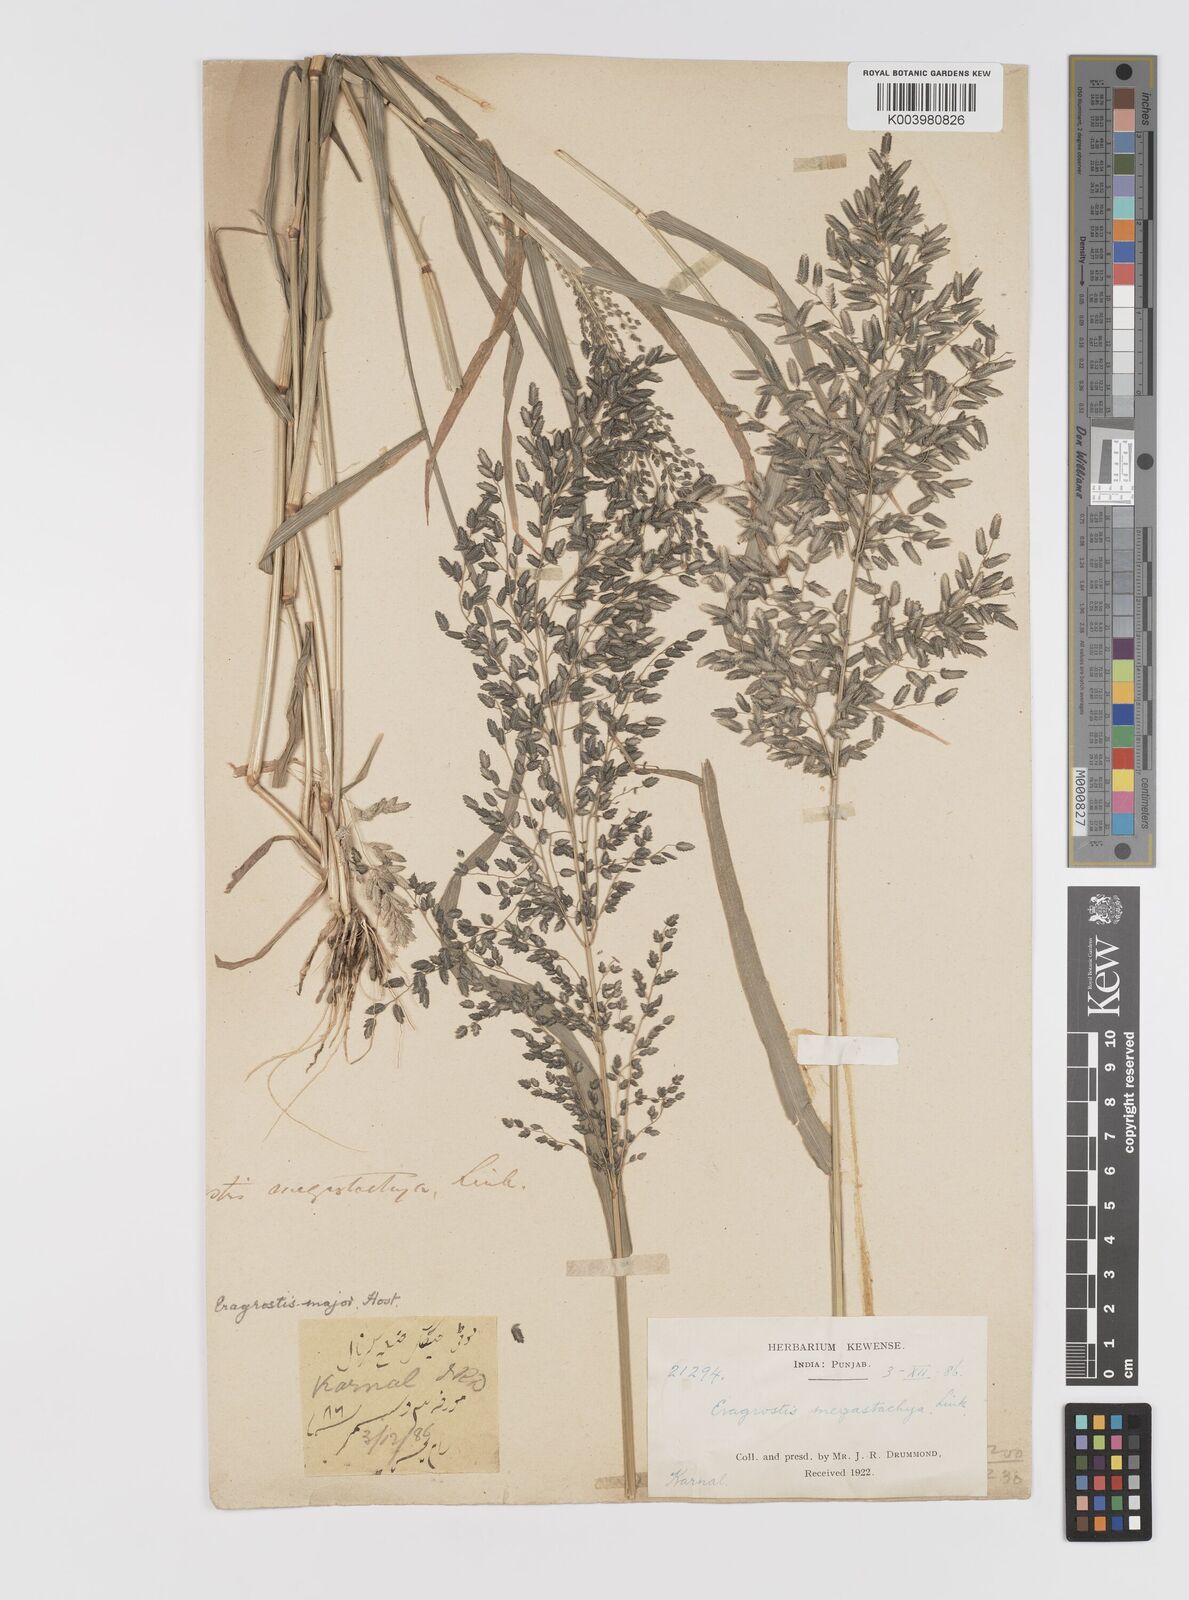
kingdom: Plantae
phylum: Tracheophyta
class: Liliopsida
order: Poales
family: Poaceae
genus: Eragrostis
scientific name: Eragrostis cilianensis
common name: Stinkgrass
